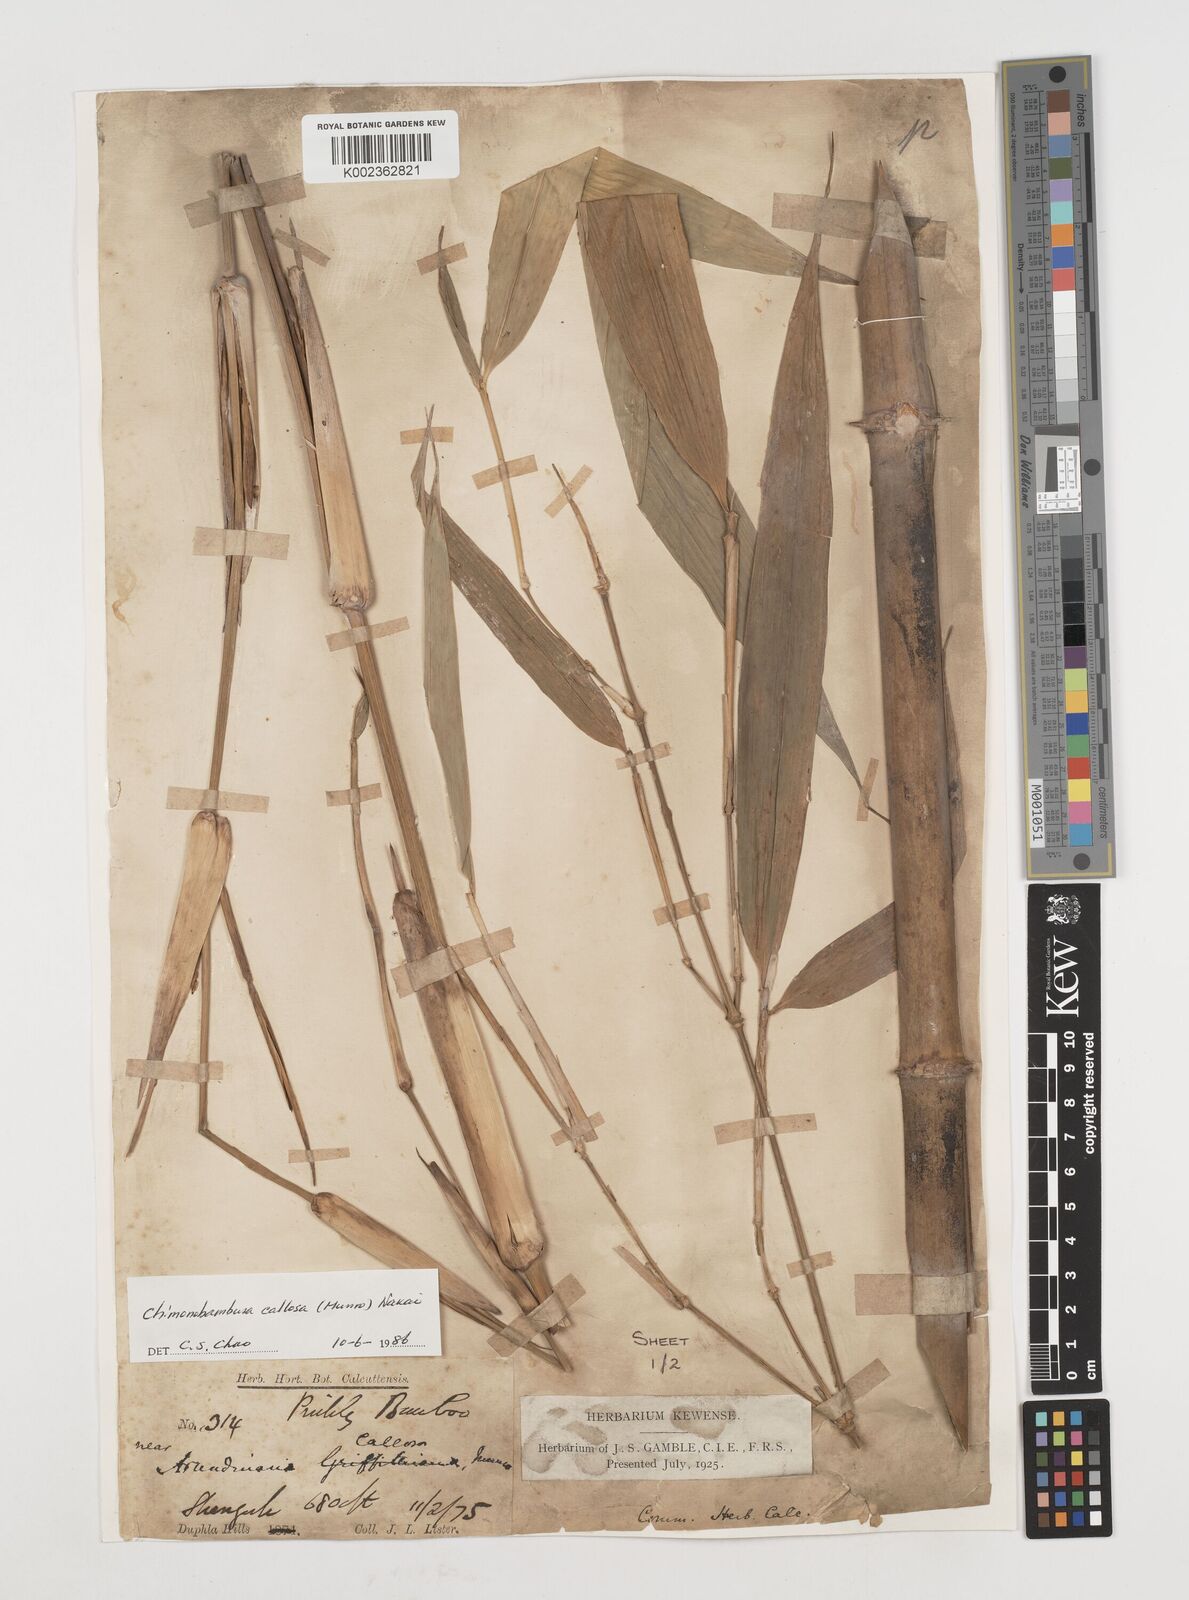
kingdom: Plantae
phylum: Tracheophyta
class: Liliopsida
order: Poales
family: Poaceae
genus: Chimonobambusa
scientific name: Chimonobambusa callosa
